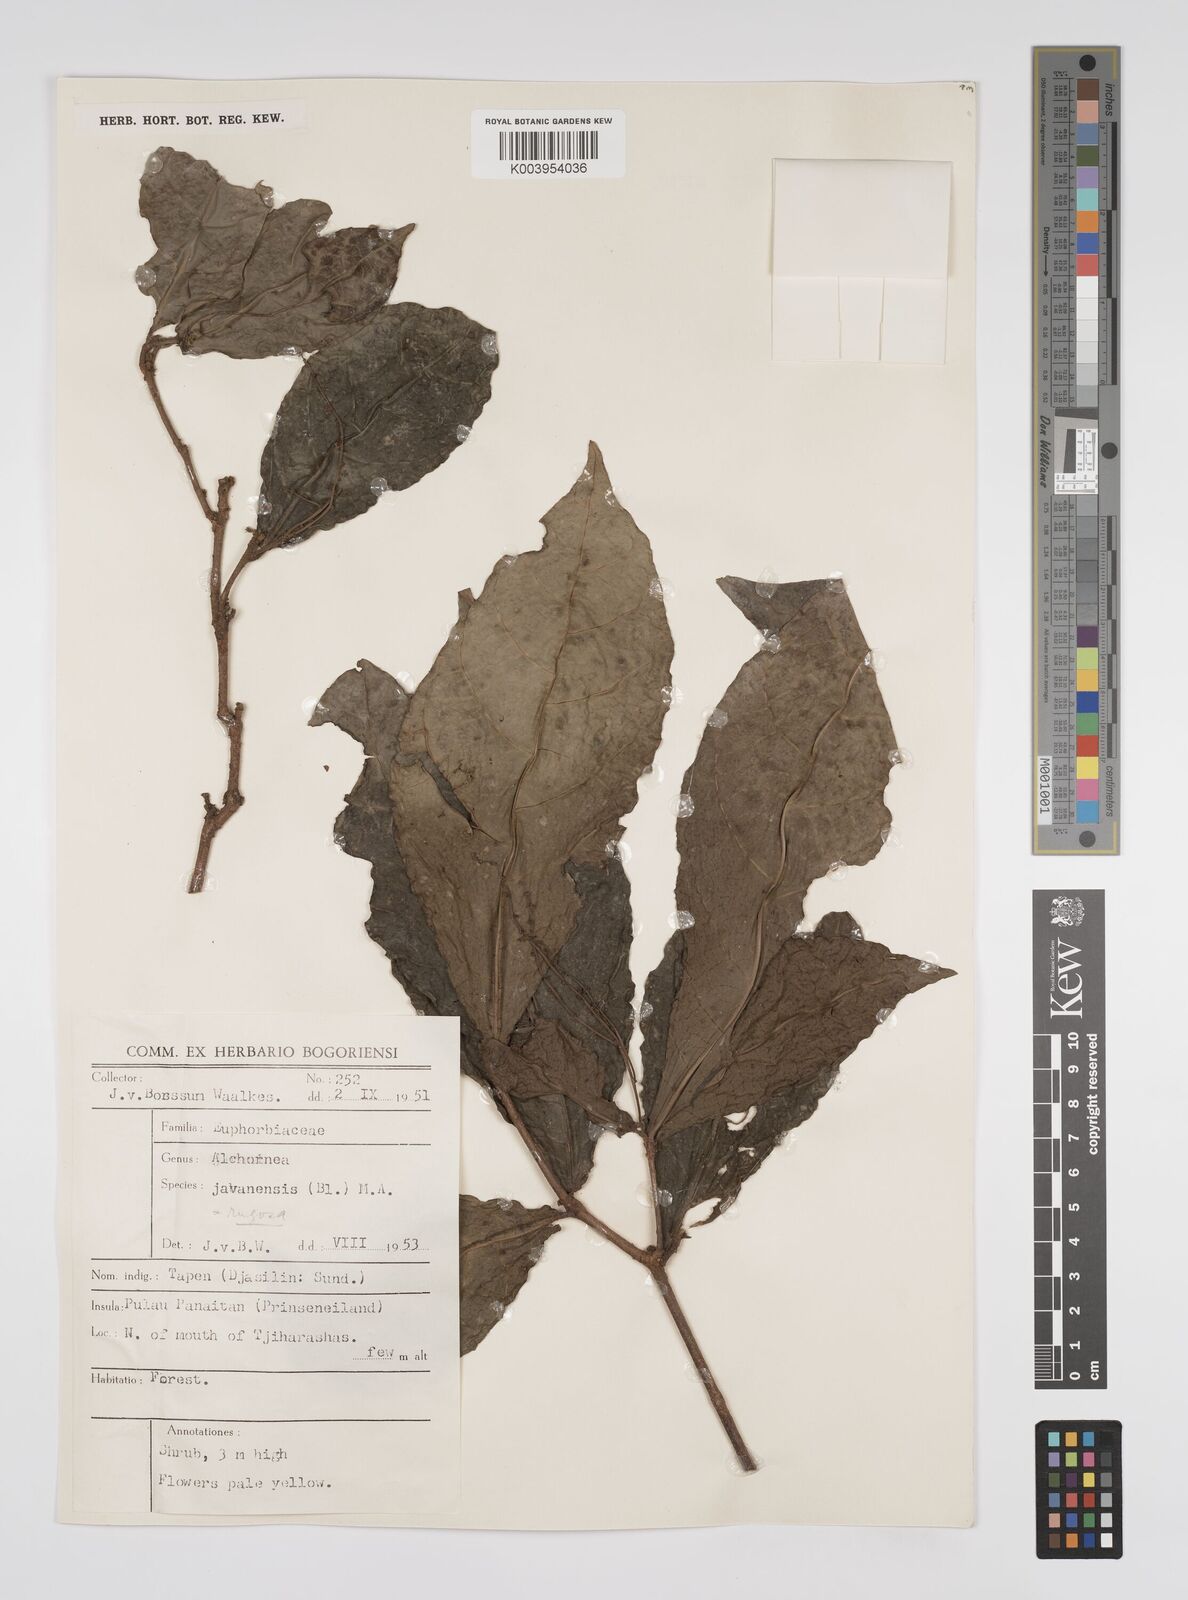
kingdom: Plantae
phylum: Tracheophyta
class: Magnoliopsida
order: Malpighiales
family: Euphorbiaceae
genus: Alchornea
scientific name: Alchornea rugosa
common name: Alchorntree
